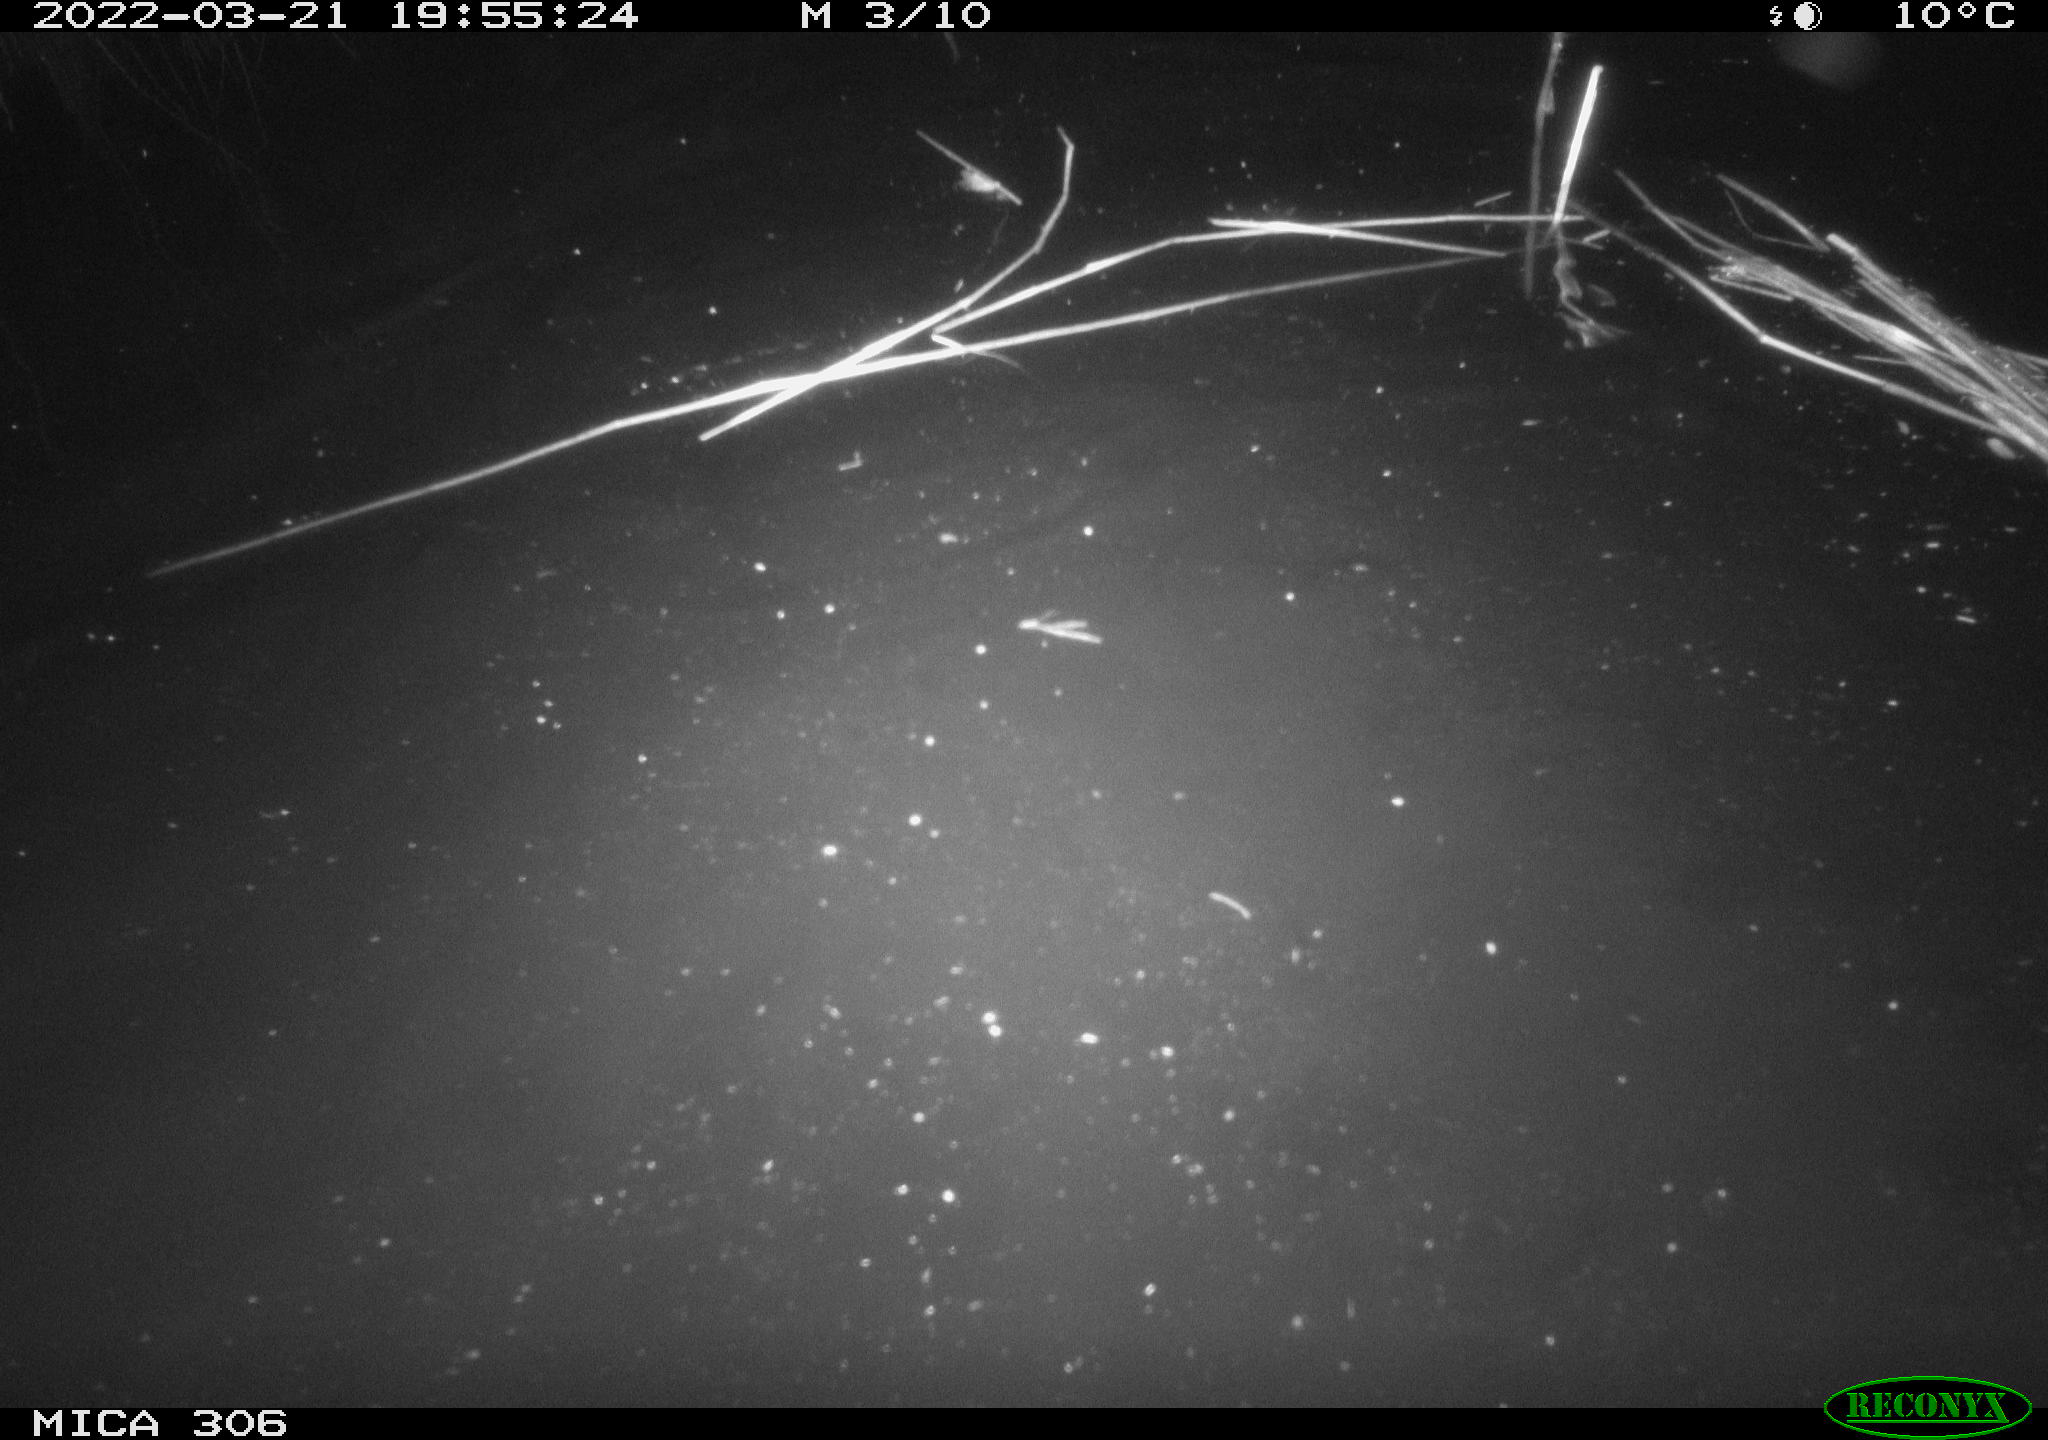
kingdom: Animalia
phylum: Chordata
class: Mammalia
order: Rodentia
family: Cricetidae
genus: Ondatra
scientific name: Ondatra zibethicus
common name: Muskrat
